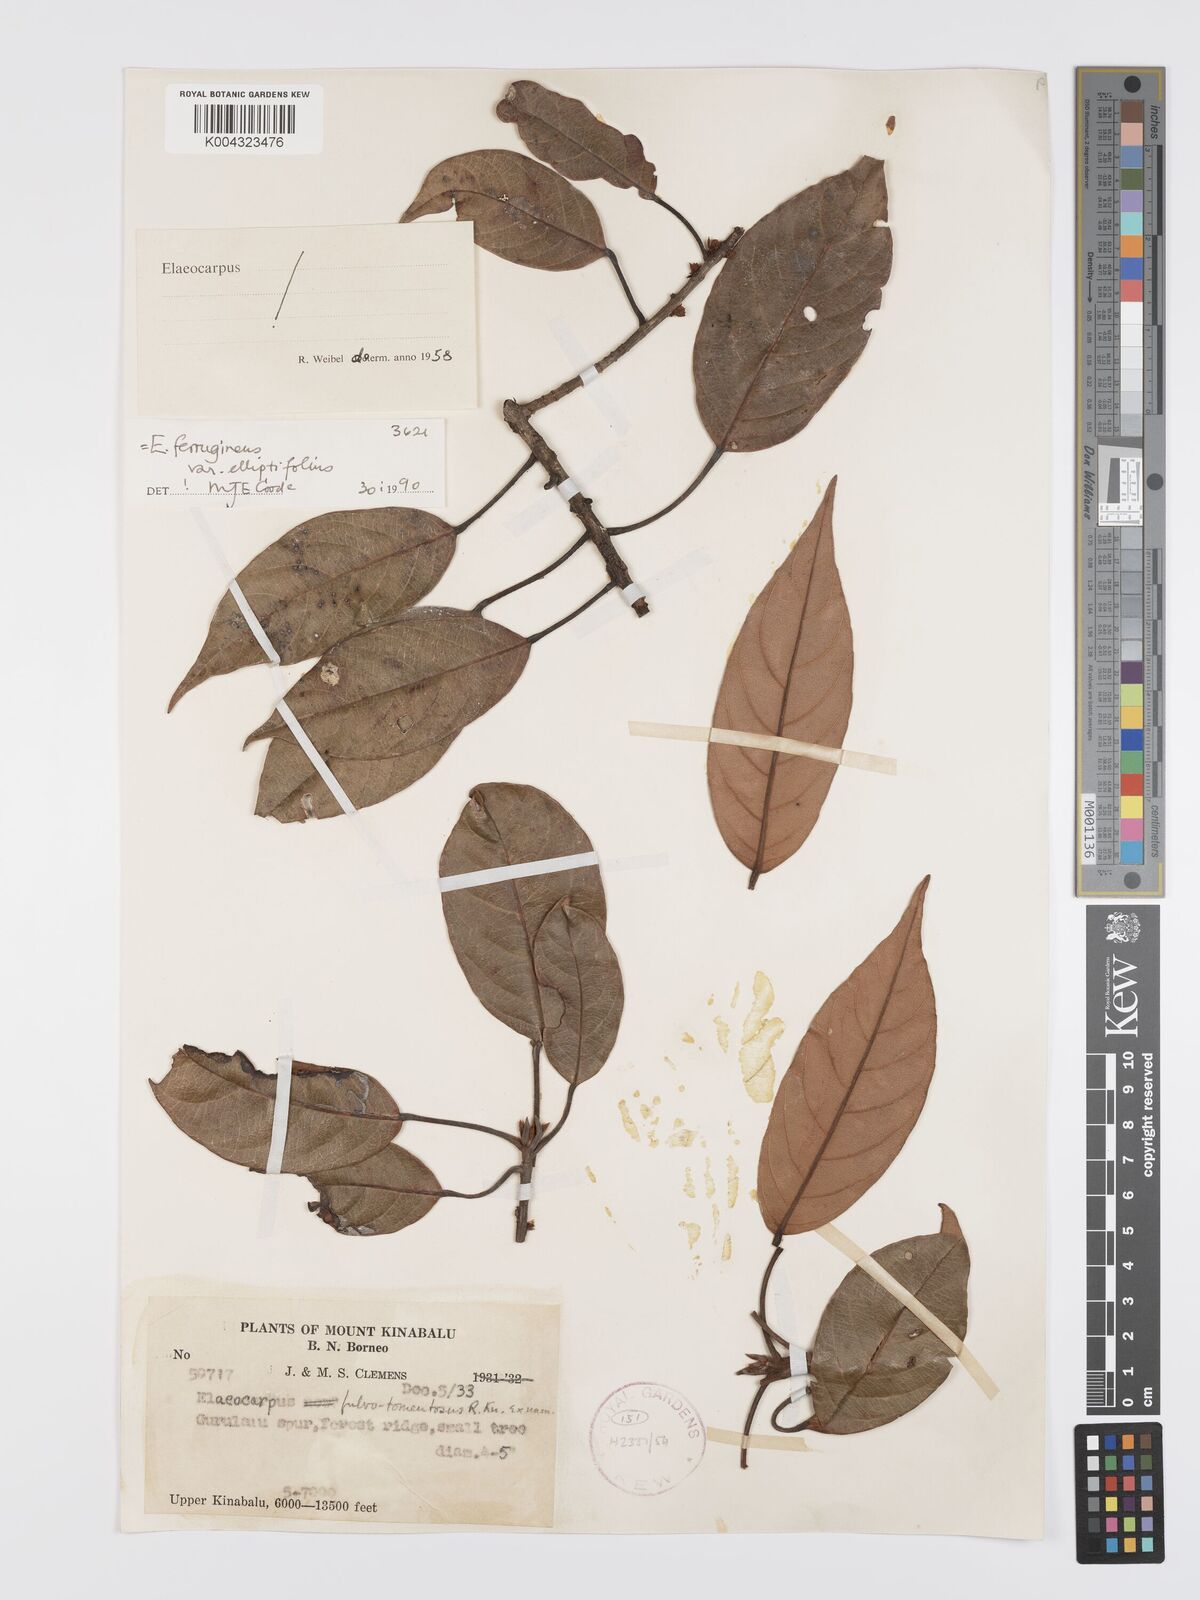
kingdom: Plantae
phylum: Tracheophyta
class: Magnoliopsida
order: Oxalidales
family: Elaeocarpaceae
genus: Elaeocarpus
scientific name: Elaeocarpus ferrugineus
